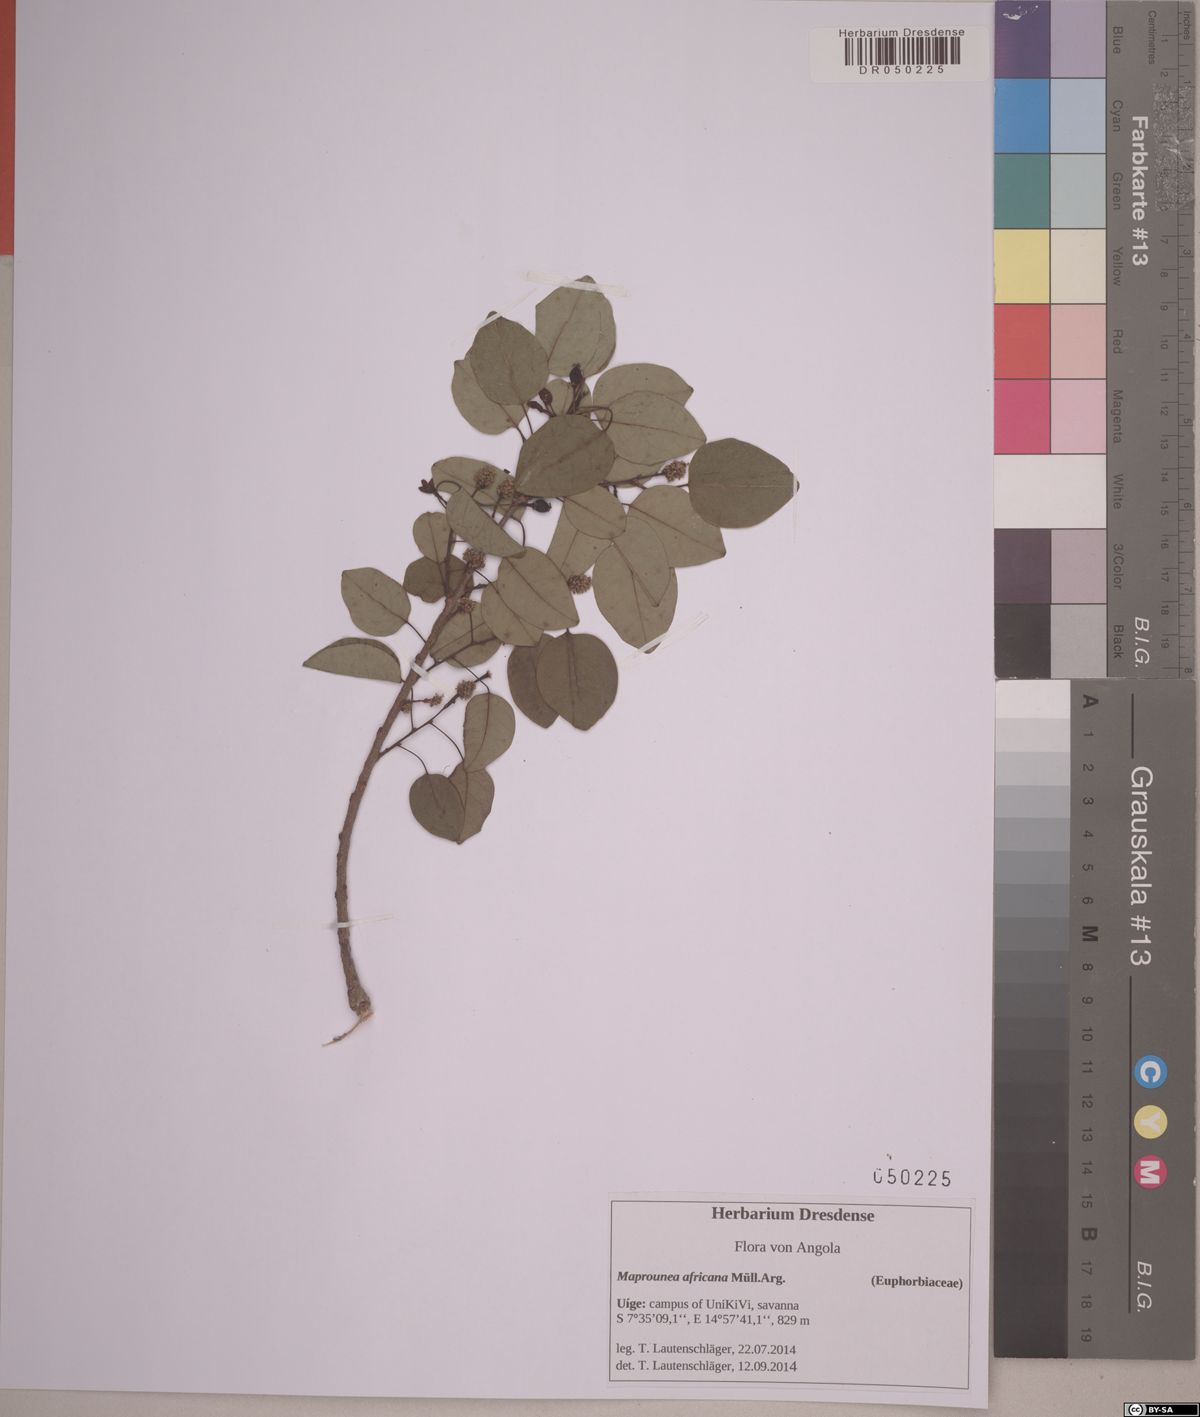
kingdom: Plantae
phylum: Tracheophyta
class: Magnoliopsida
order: Malpighiales
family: Euphorbiaceae
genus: Maprounea
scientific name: Maprounea africana
